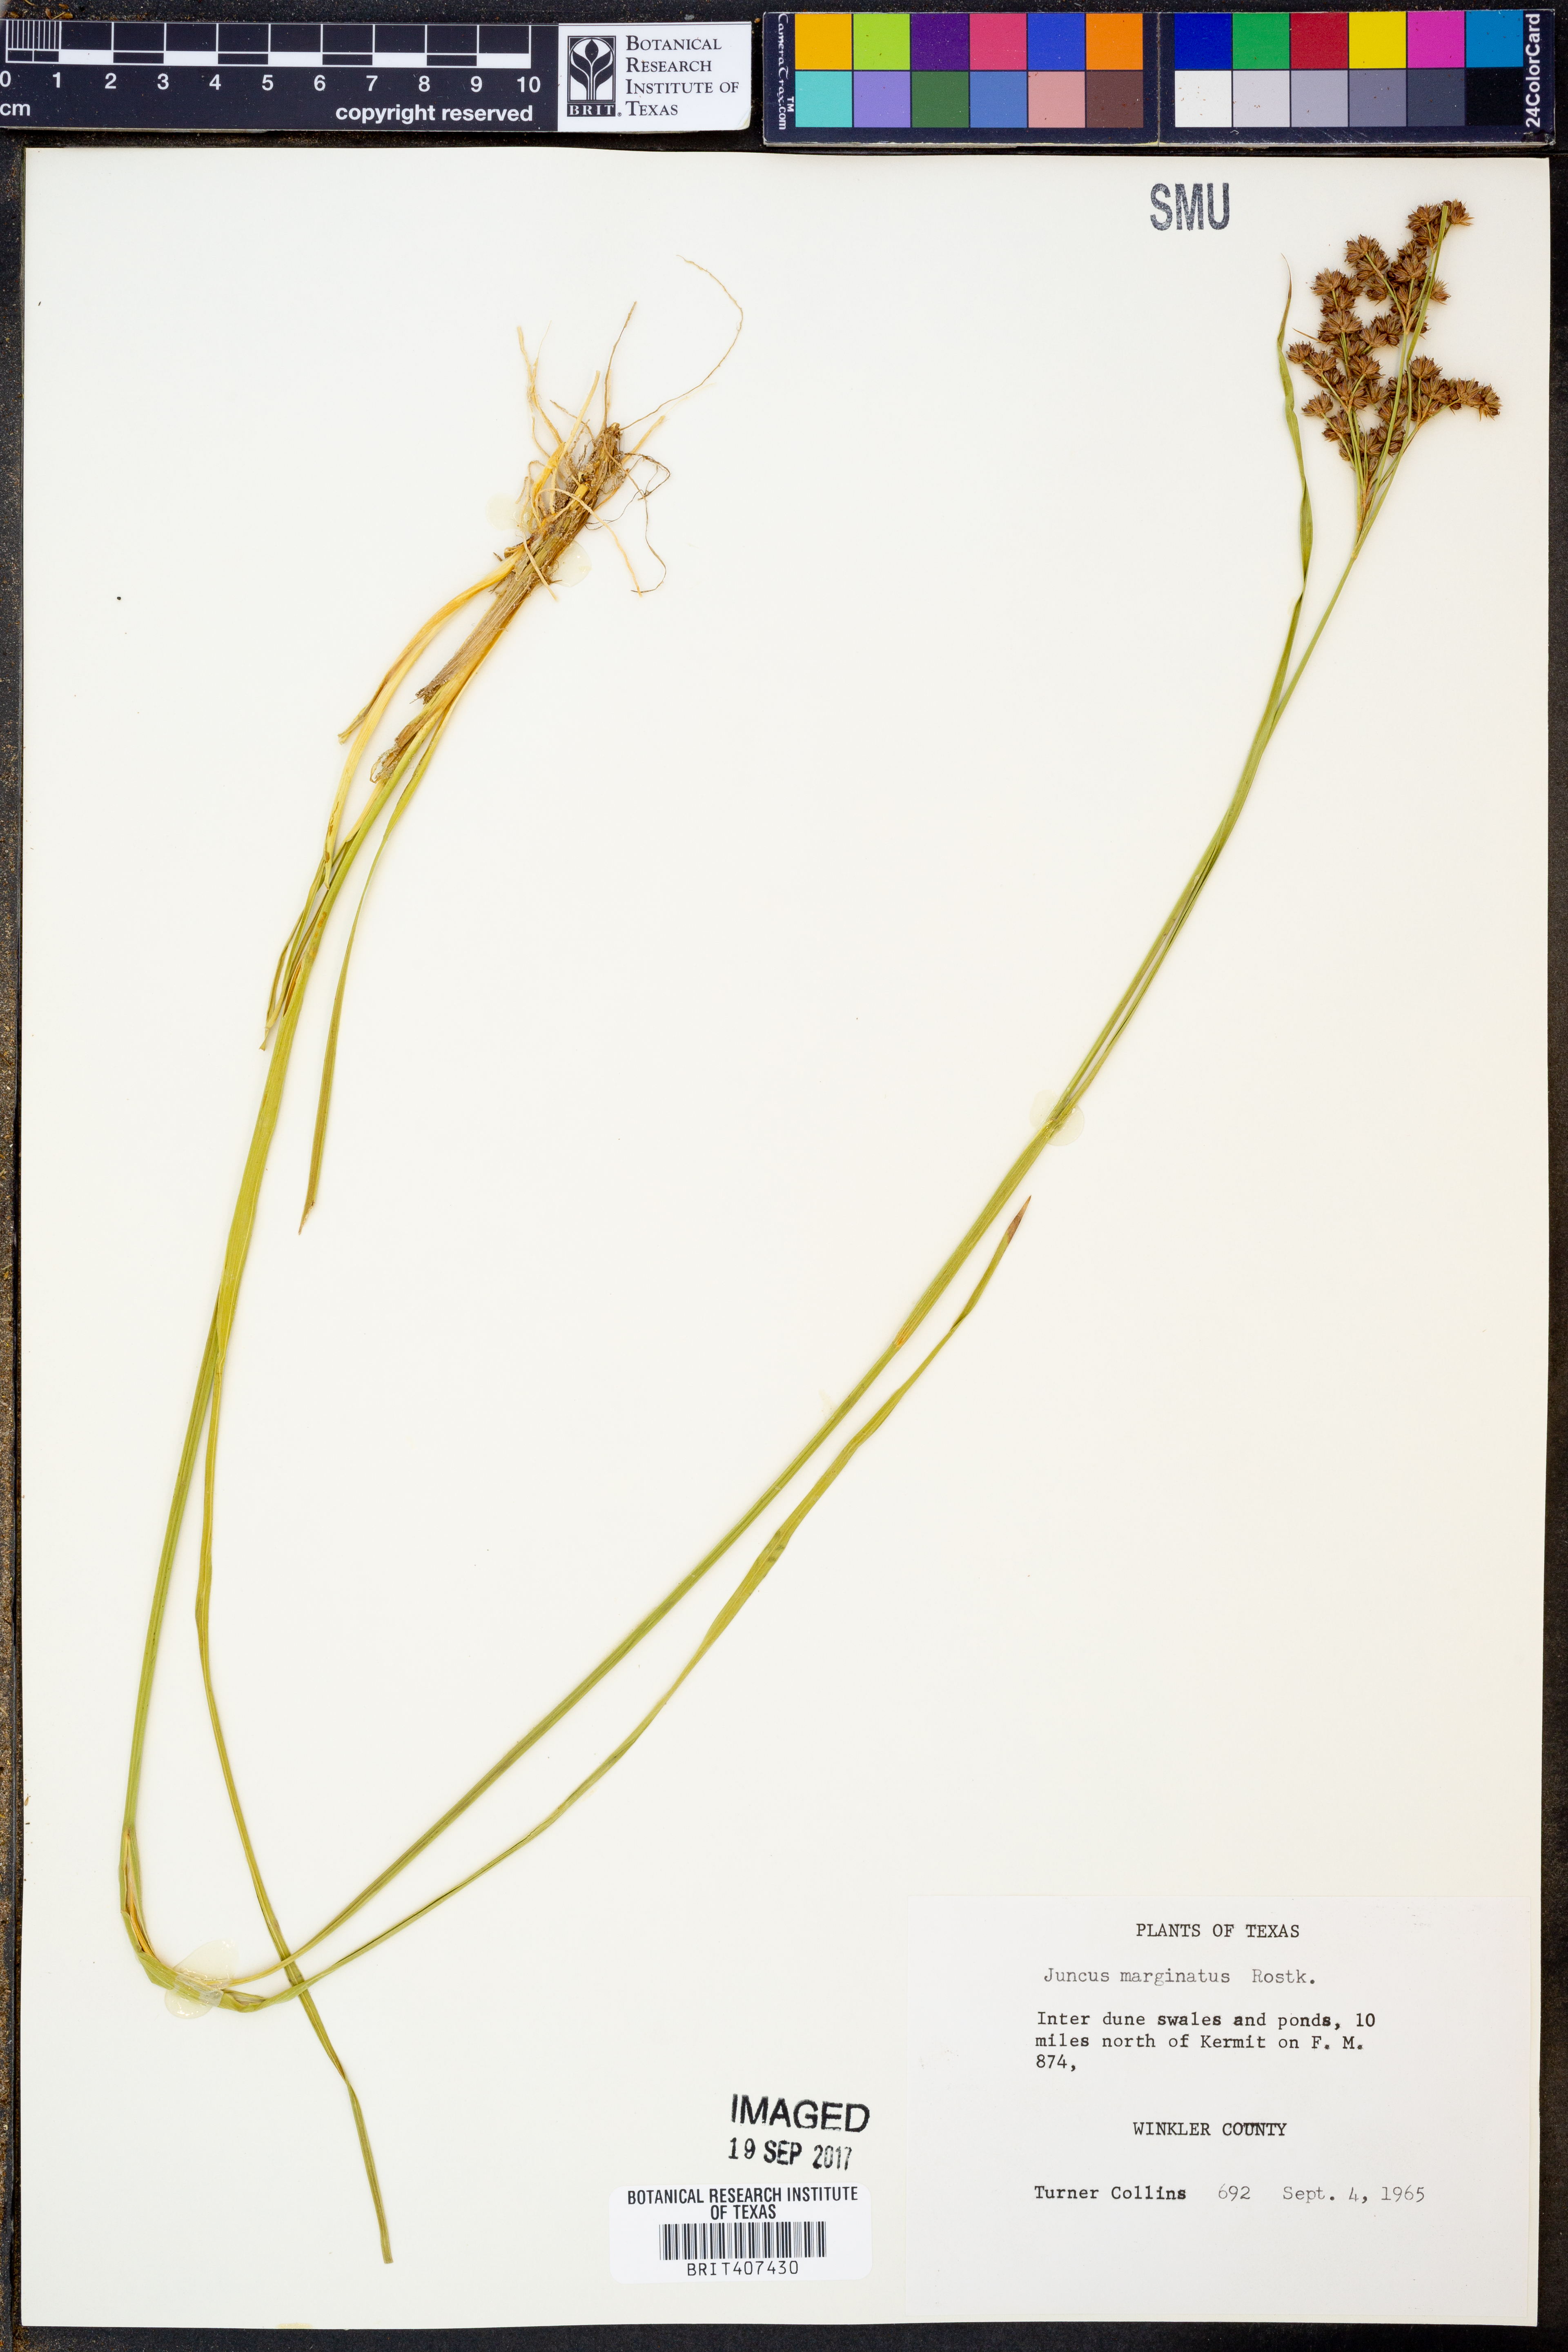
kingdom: Plantae
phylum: Tracheophyta
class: Liliopsida
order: Poales
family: Juncaceae
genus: Juncus
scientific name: Juncus marginatus
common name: Grass-leaf rush
